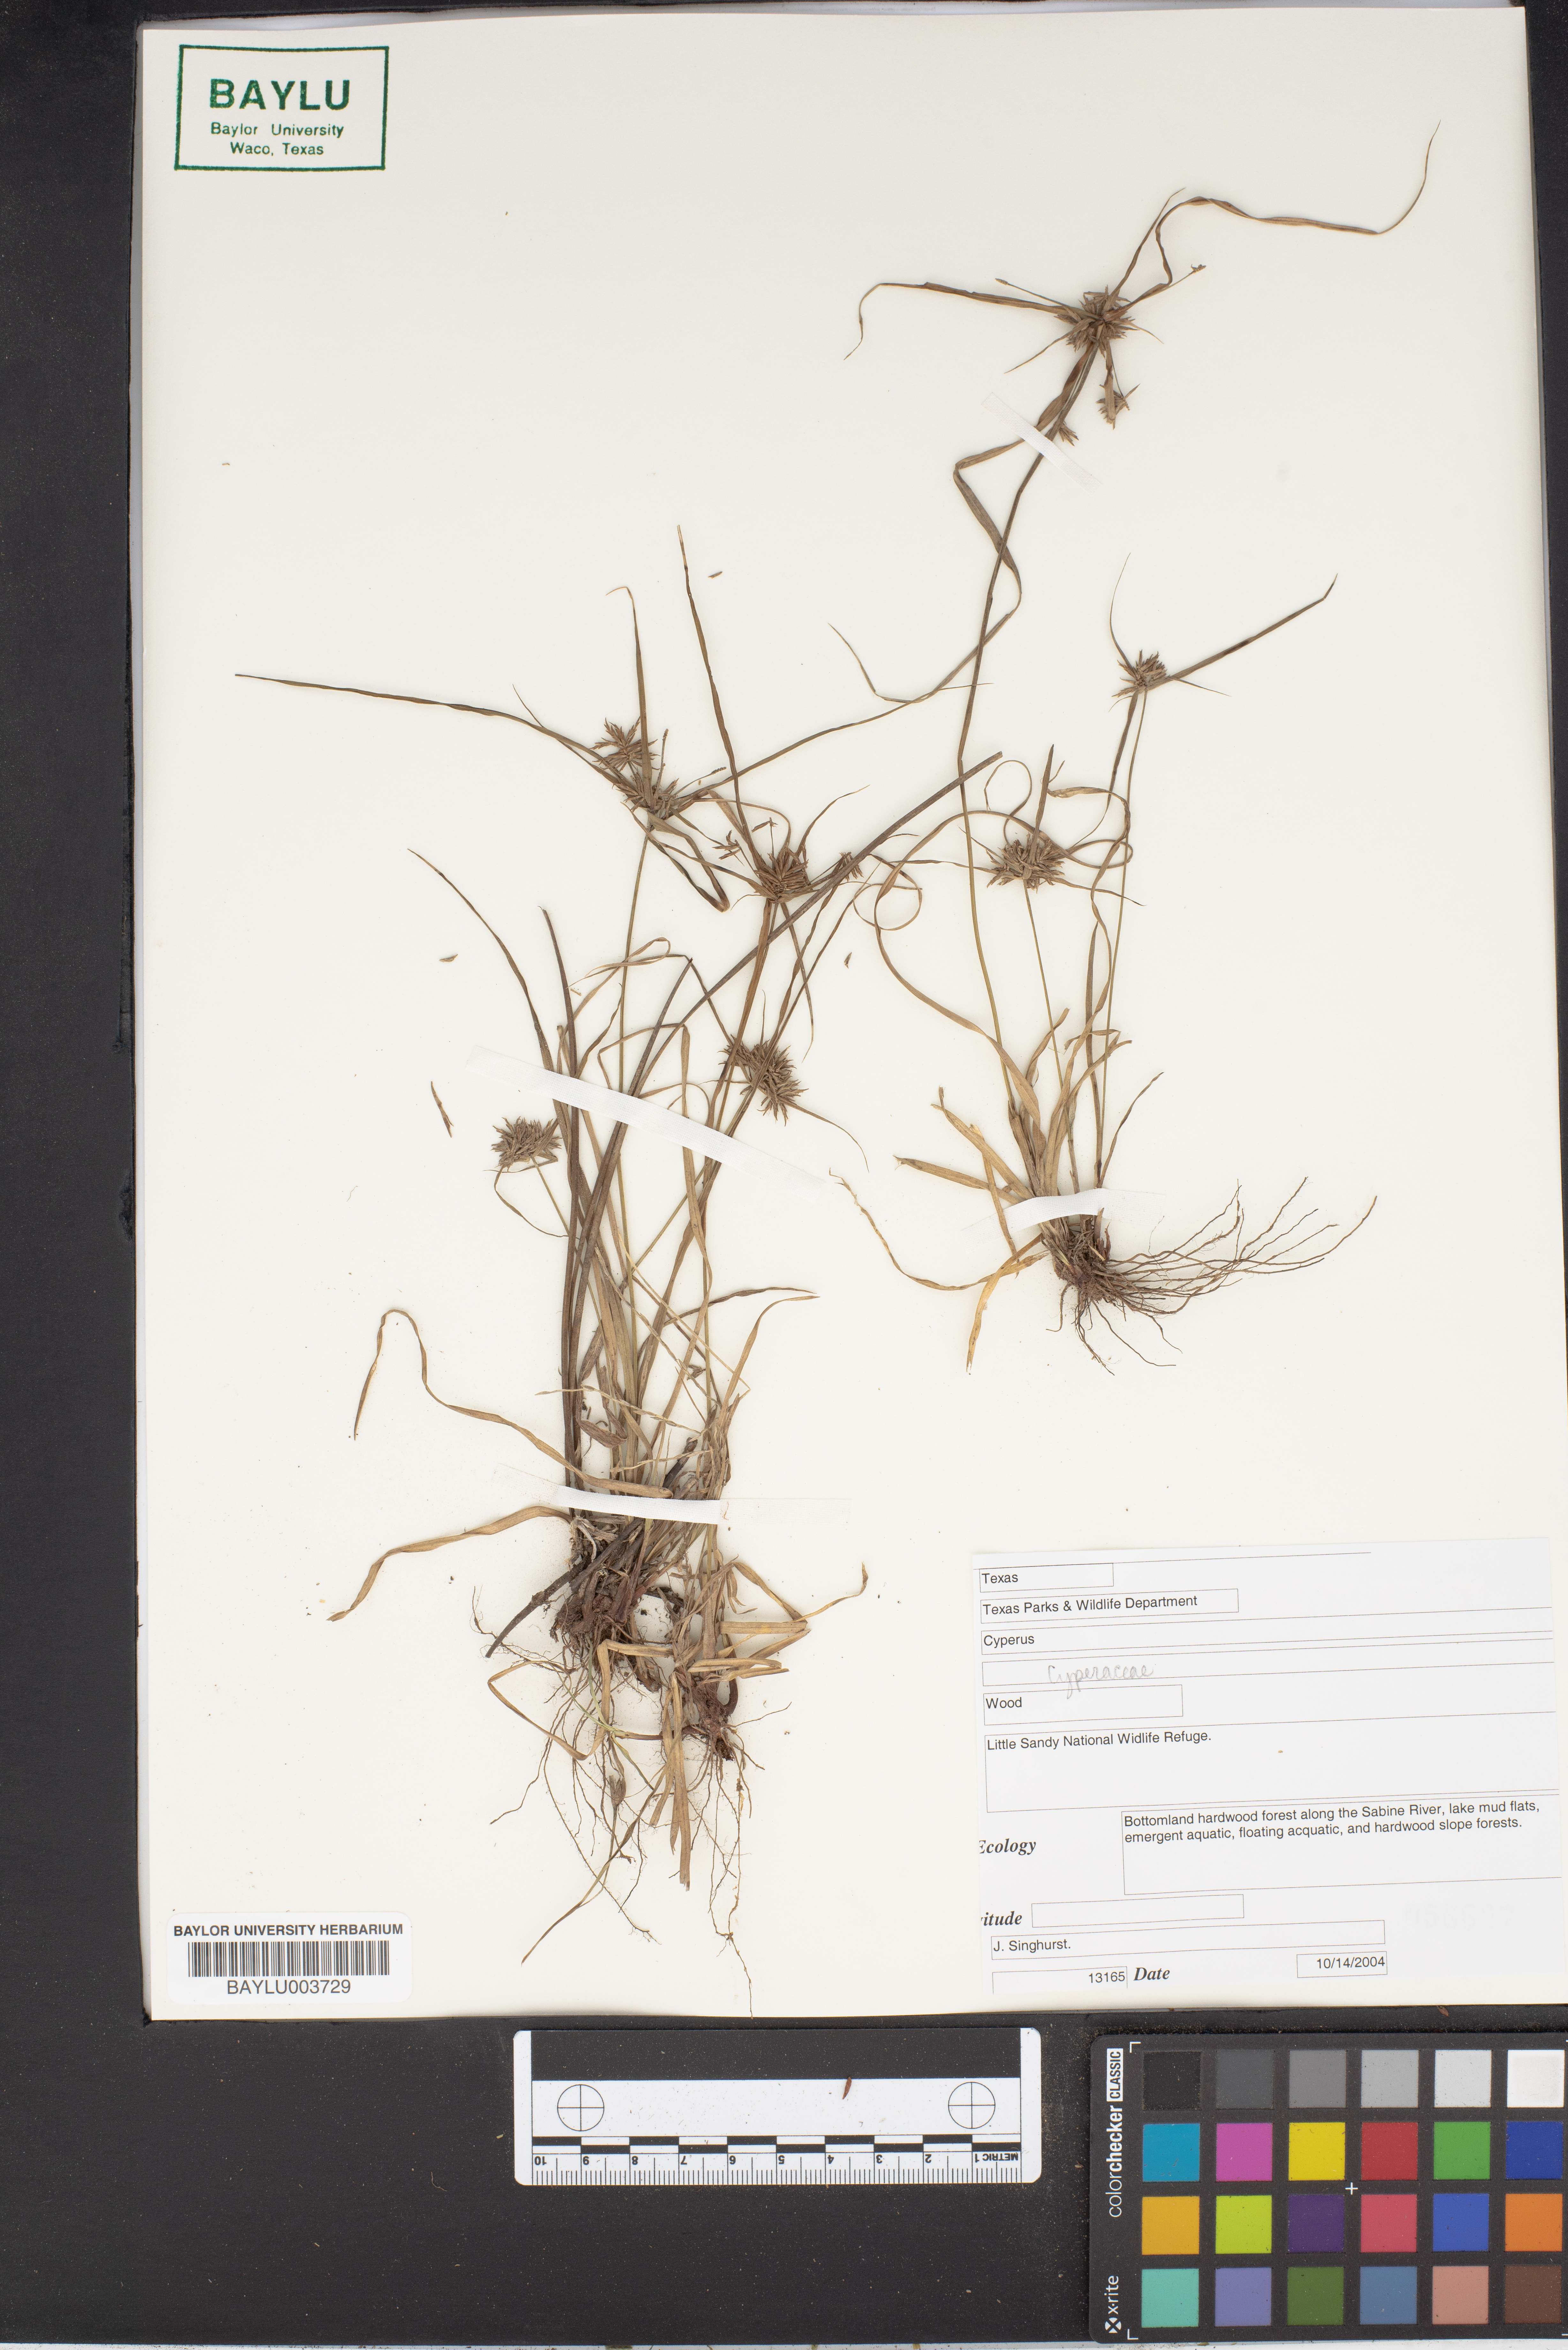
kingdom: Plantae
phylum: Tracheophyta
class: Liliopsida
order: Poales
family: Cyperaceae
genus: Cyperus
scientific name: Cyperus
